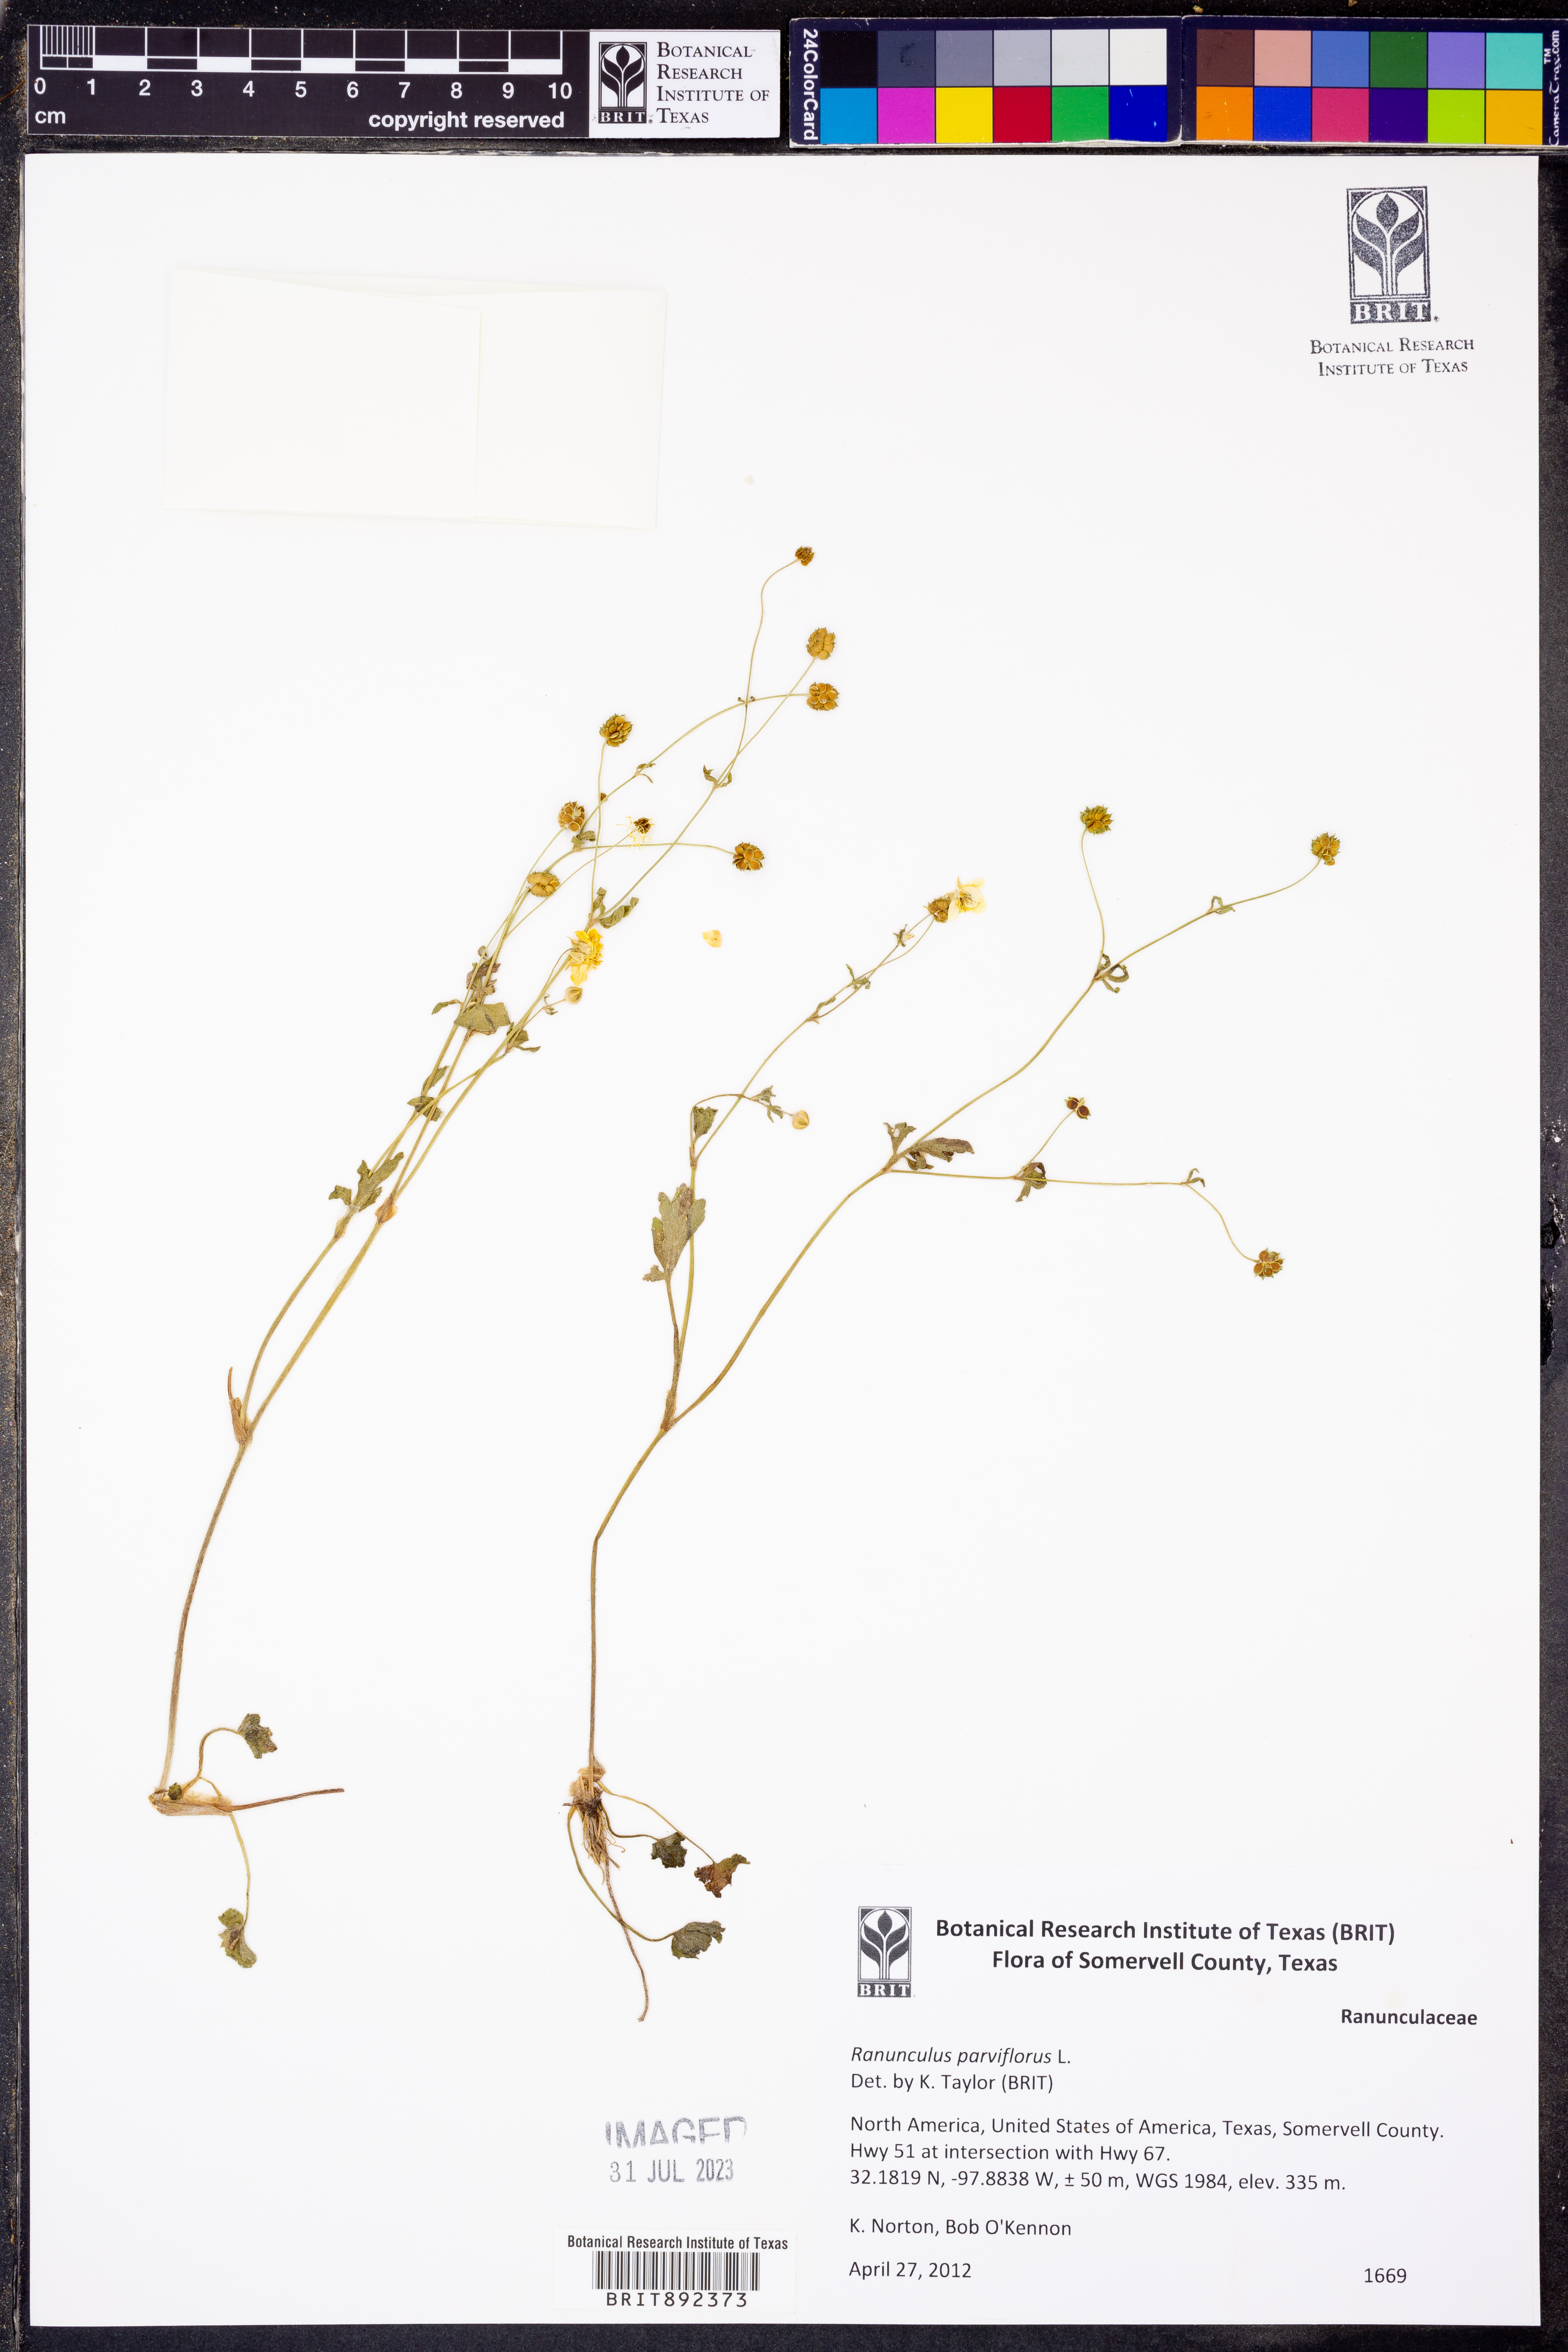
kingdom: Plantae
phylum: Tracheophyta
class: Magnoliopsida
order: Ranunculales
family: Ranunculaceae
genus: Ranunculus
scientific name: Ranunculus parviflorus
